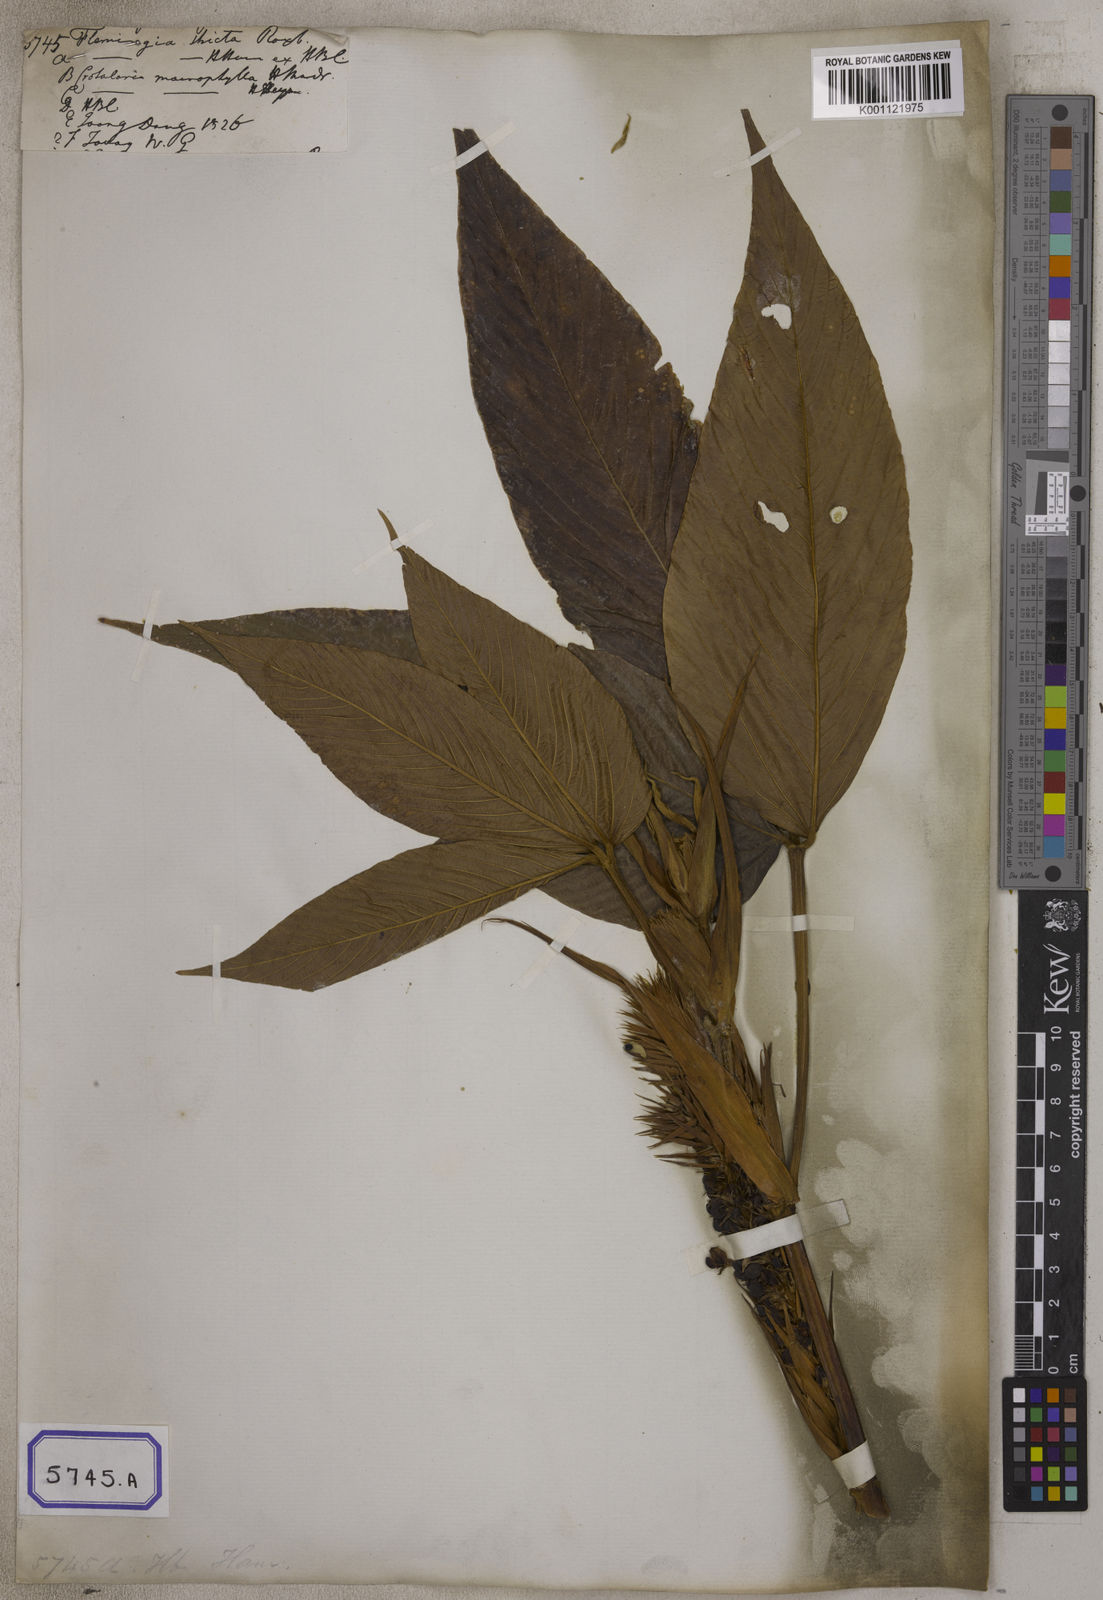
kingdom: Plantae
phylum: Tracheophyta
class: Magnoliopsida
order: Fabales
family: Fabaceae
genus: Flemingia
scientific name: Flemingia
